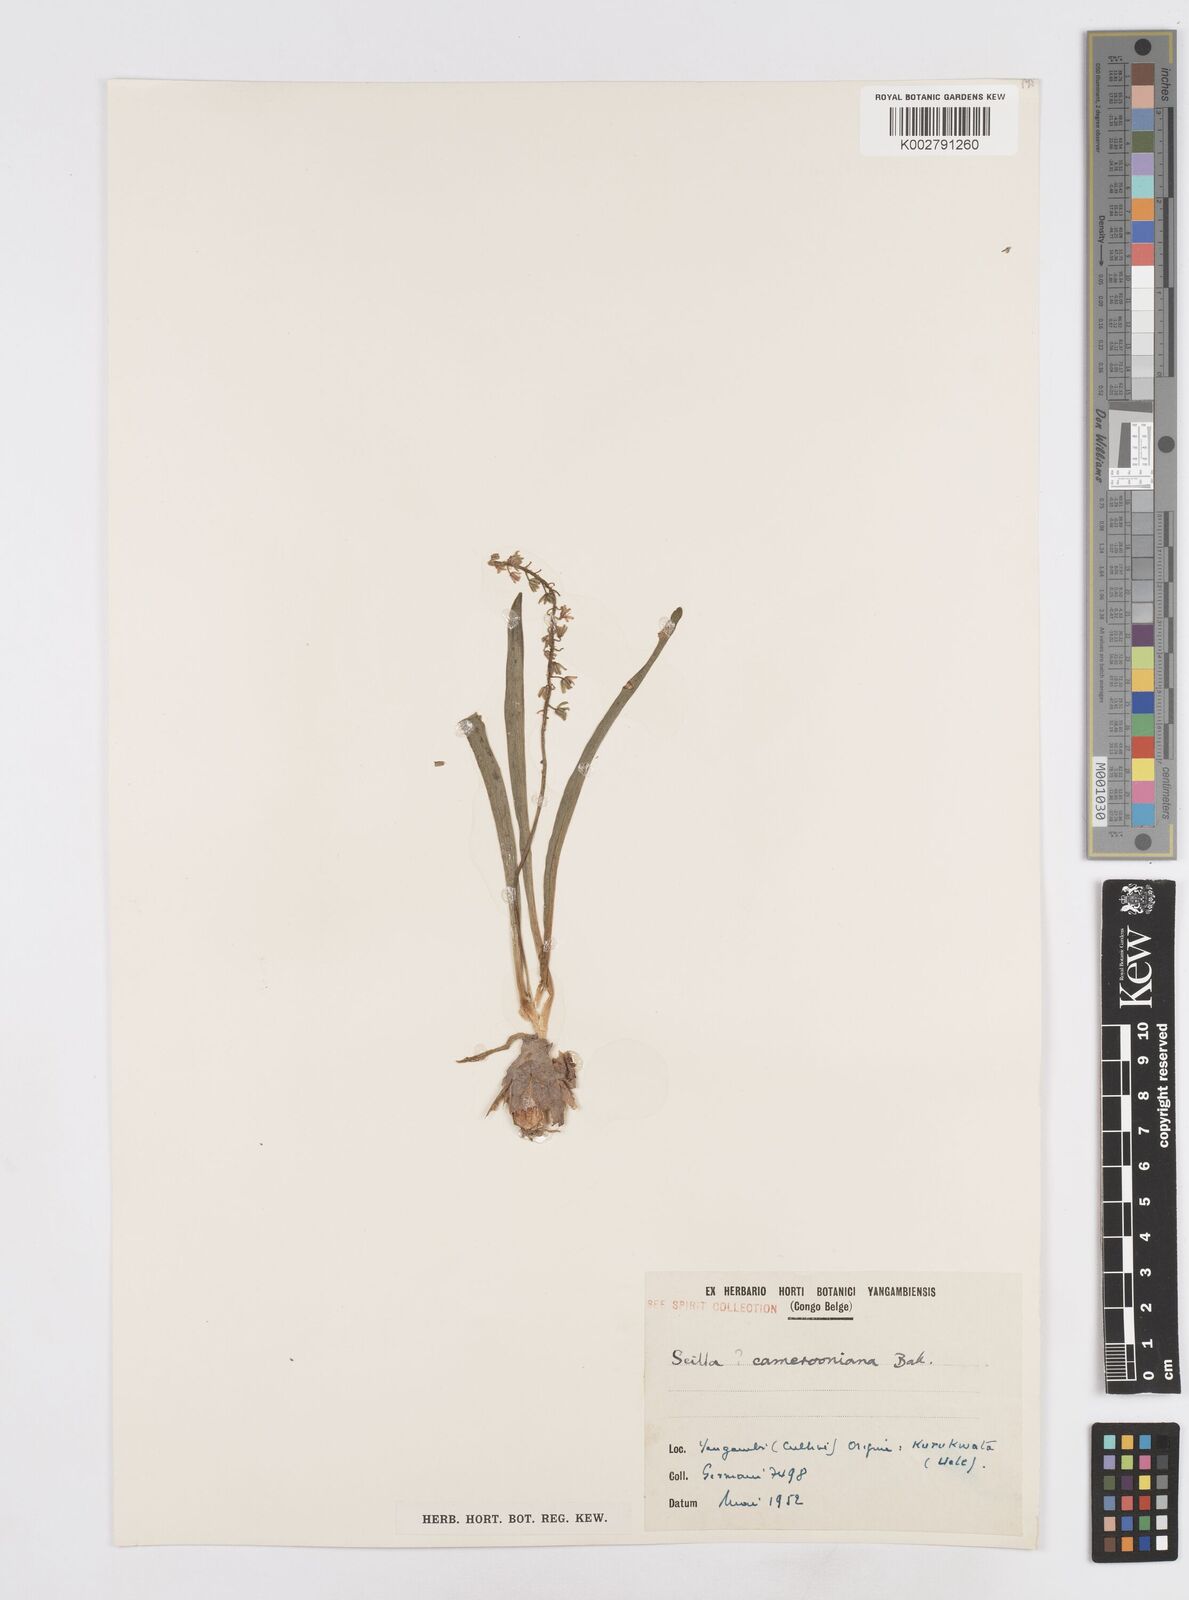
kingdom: Plantae
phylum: Tracheophyta
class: Liliopsida
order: Asparagales
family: Asparagaceae
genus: Ledebouria
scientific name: Ledebouria camerooniana
